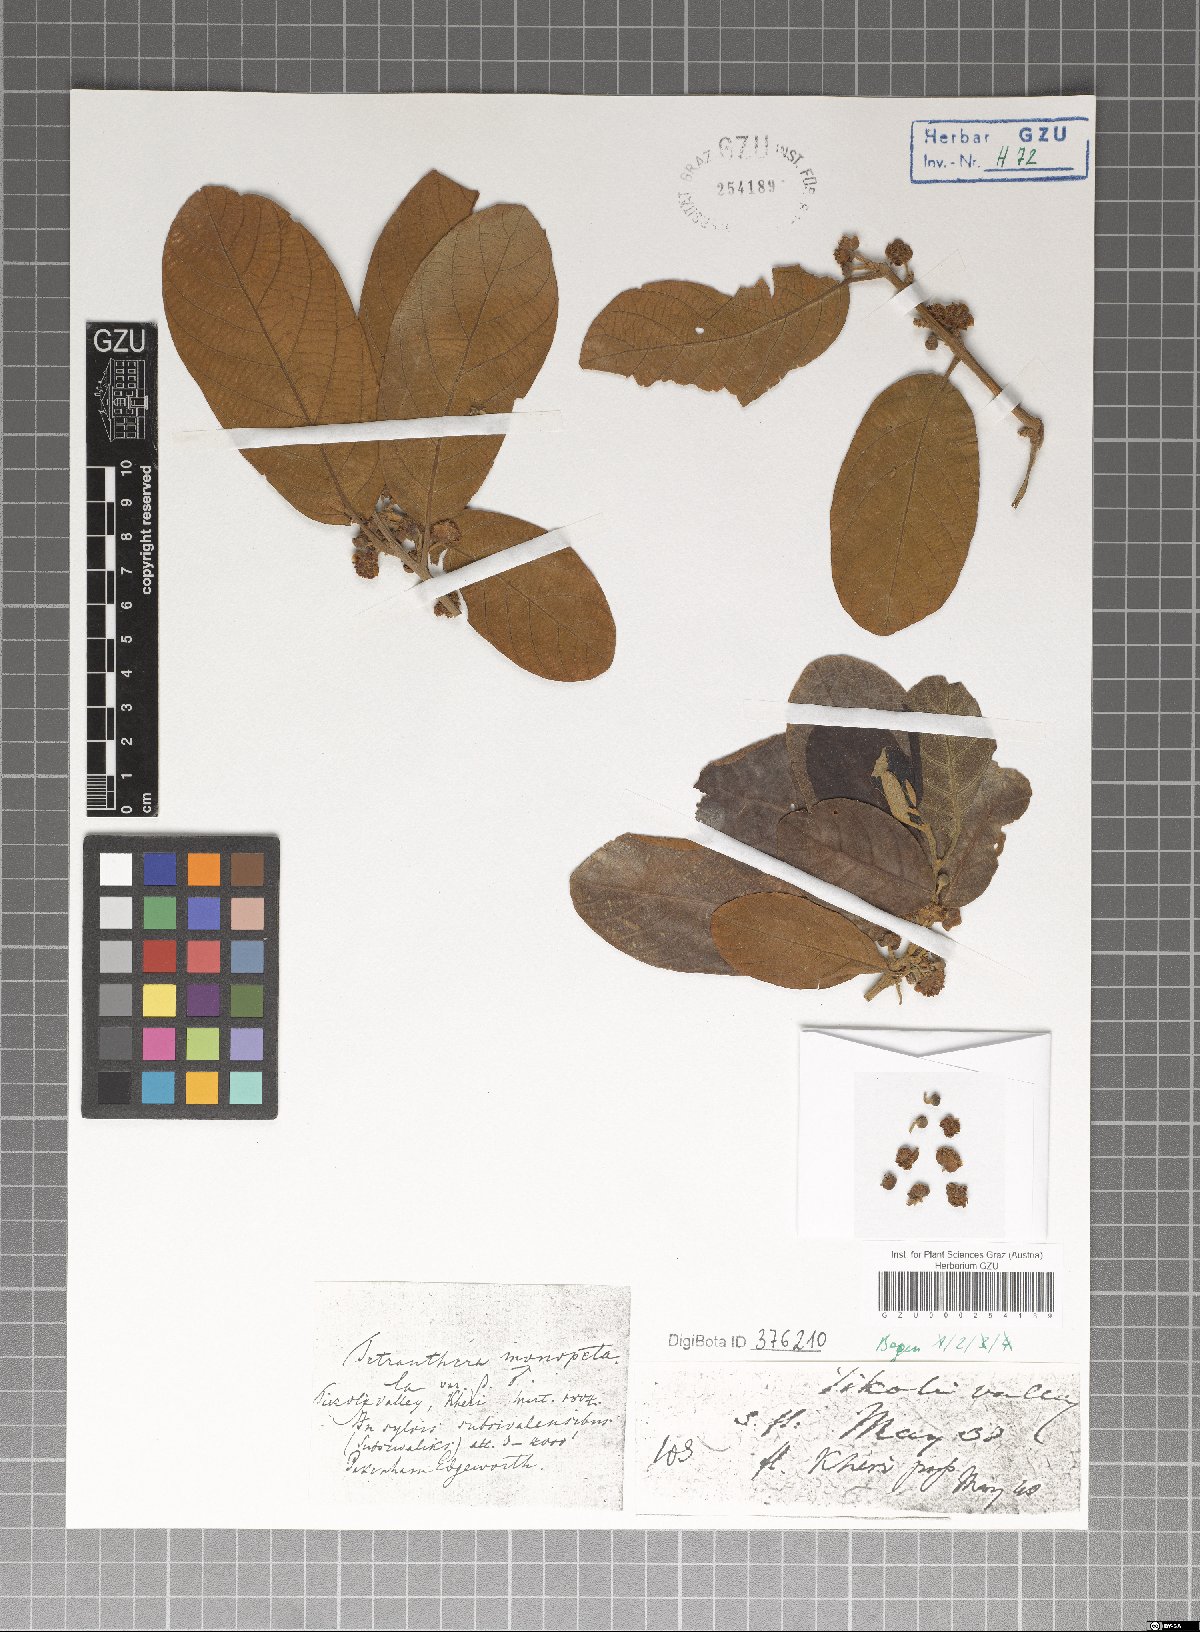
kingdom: Plantae
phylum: Tracheophyta
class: Magnoliopsida
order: Laurales
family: Lauraceae
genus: Litsea
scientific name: Litsea monopetala
